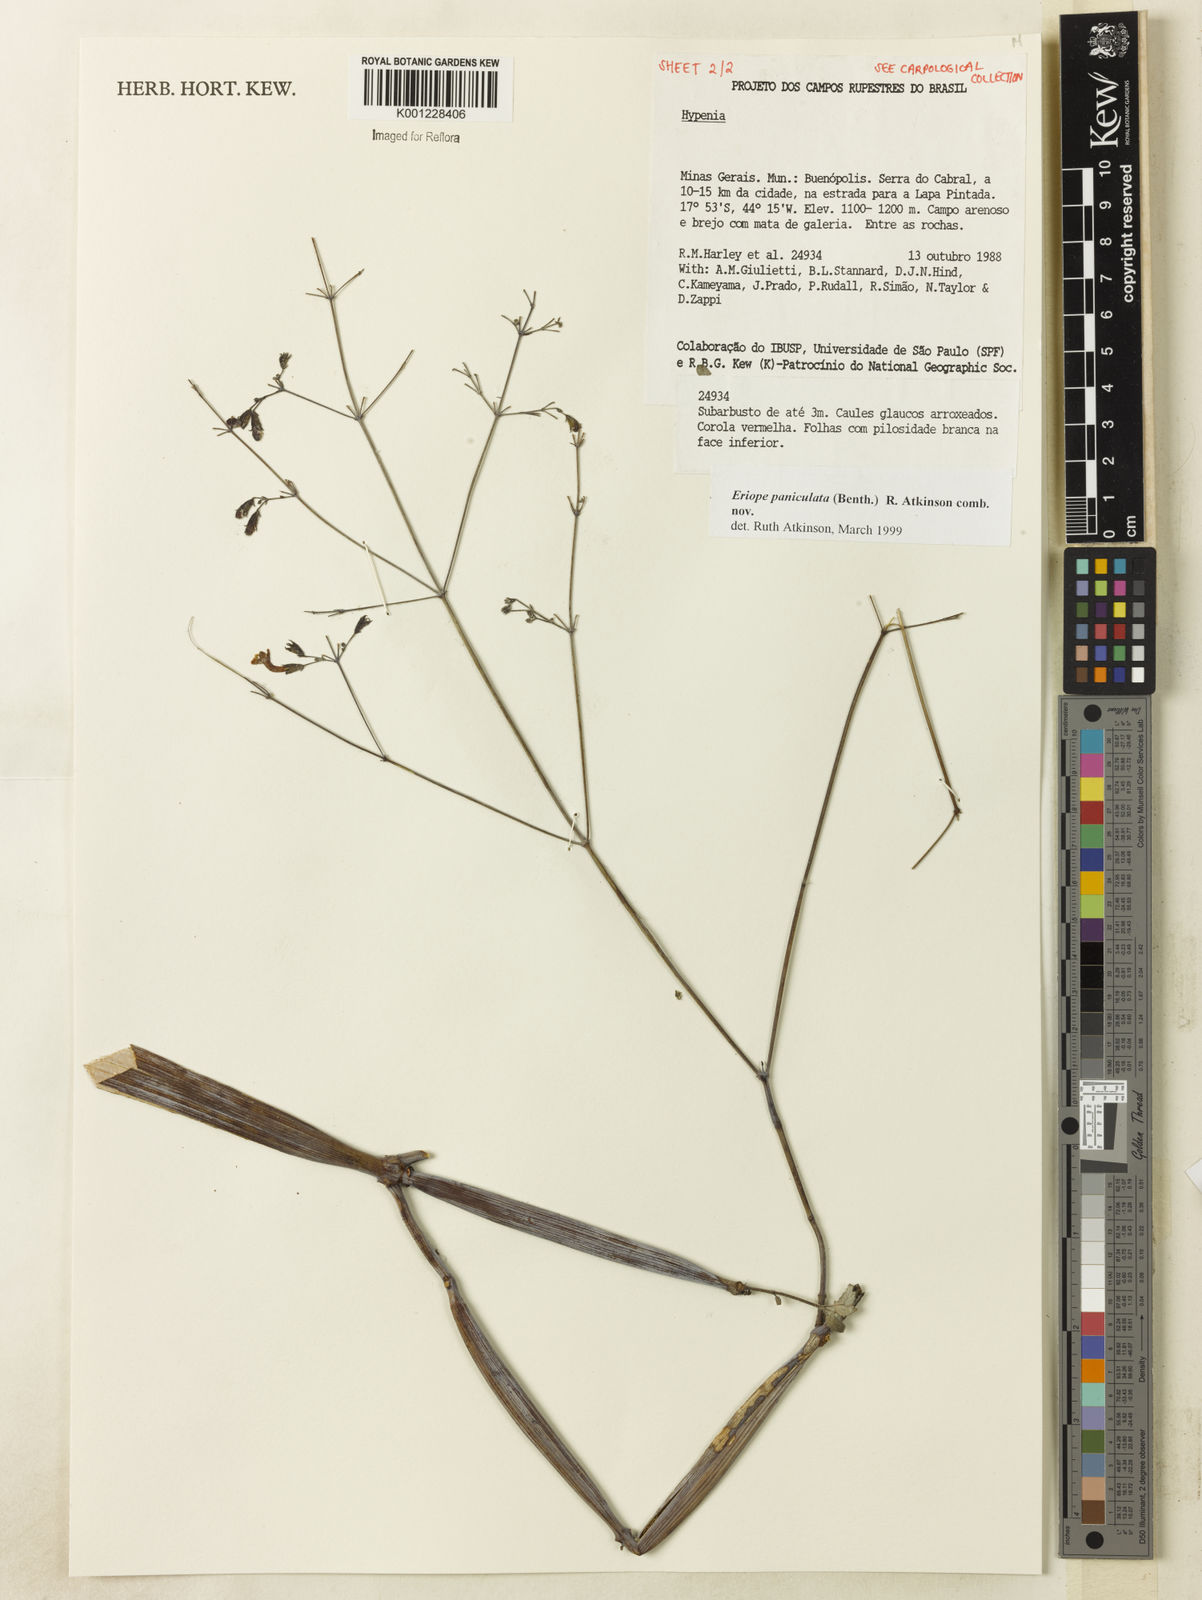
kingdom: Plantae
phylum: Tracheophyta
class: Magnoliopsida
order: Lamiales
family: Lamiaceae
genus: Hypenia
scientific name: Hypenia paniculata
